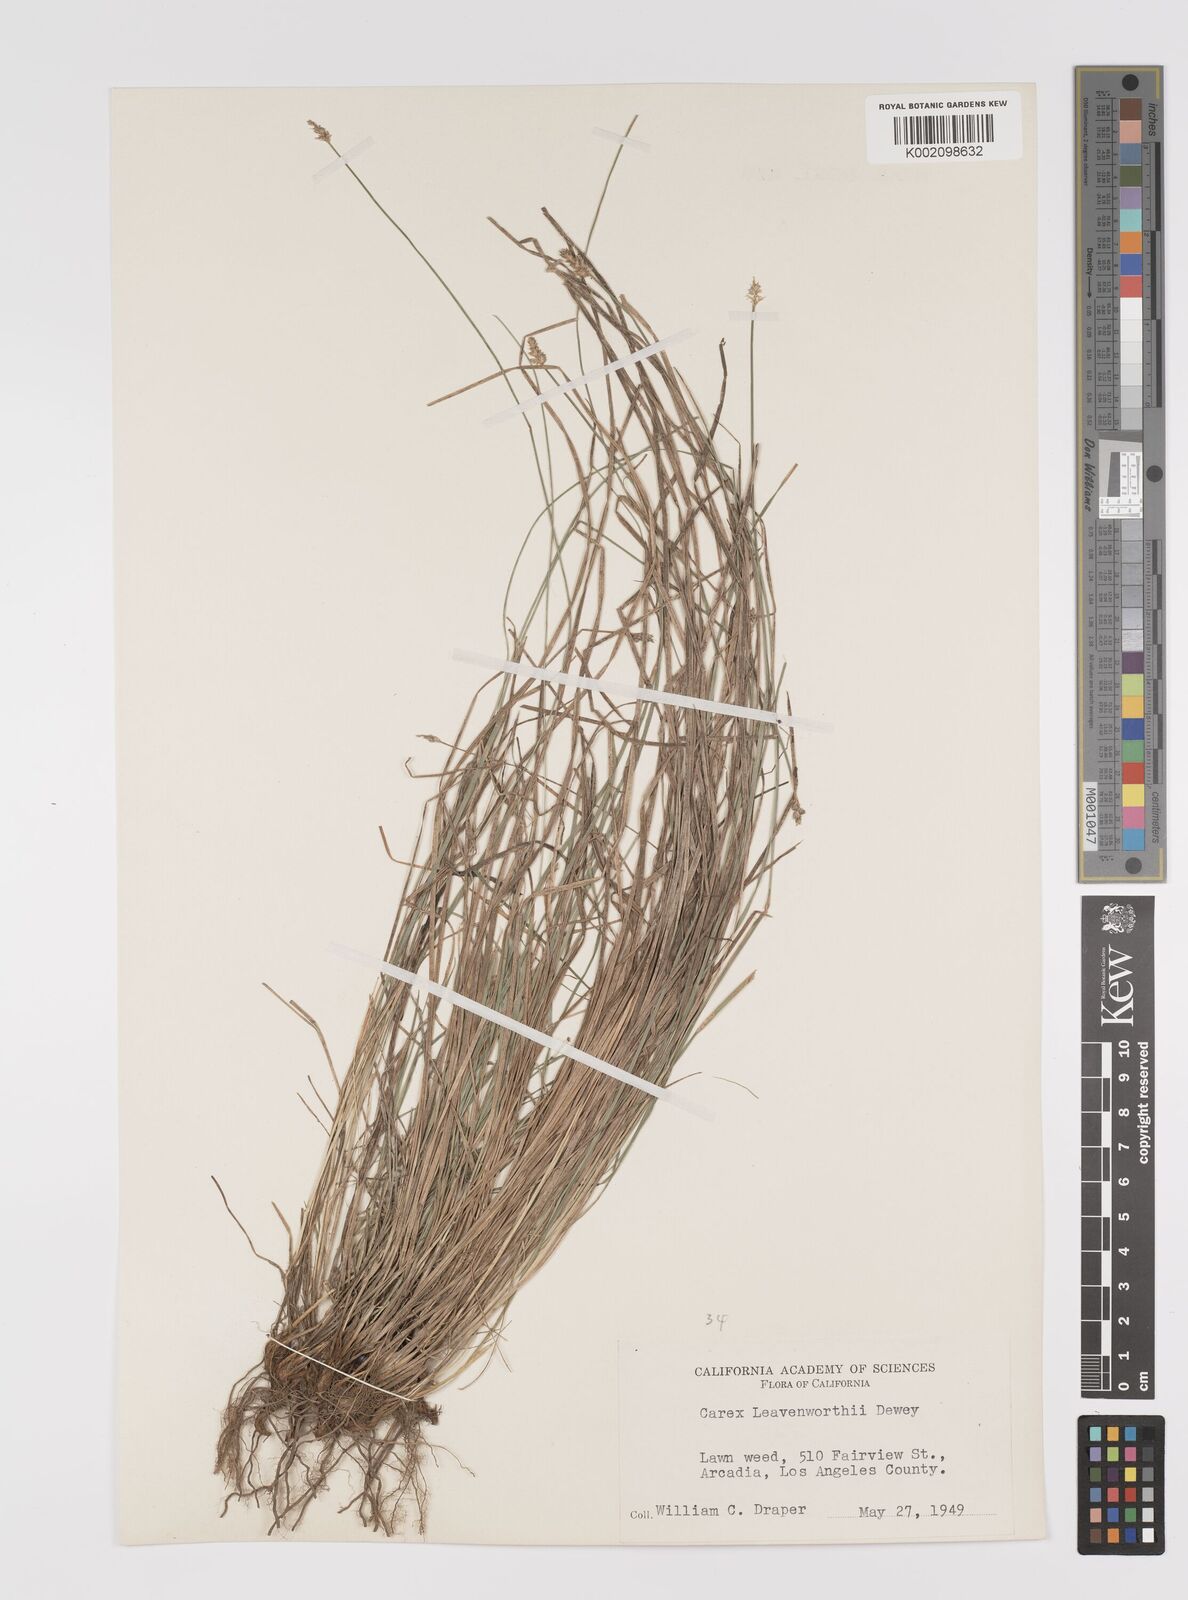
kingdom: Plantae
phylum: Tracheophyta
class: Liliopsida
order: Poales
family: Cyperaceae
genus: Carex
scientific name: Carex leavenworthii
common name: Leavenworth's bracted sedge
